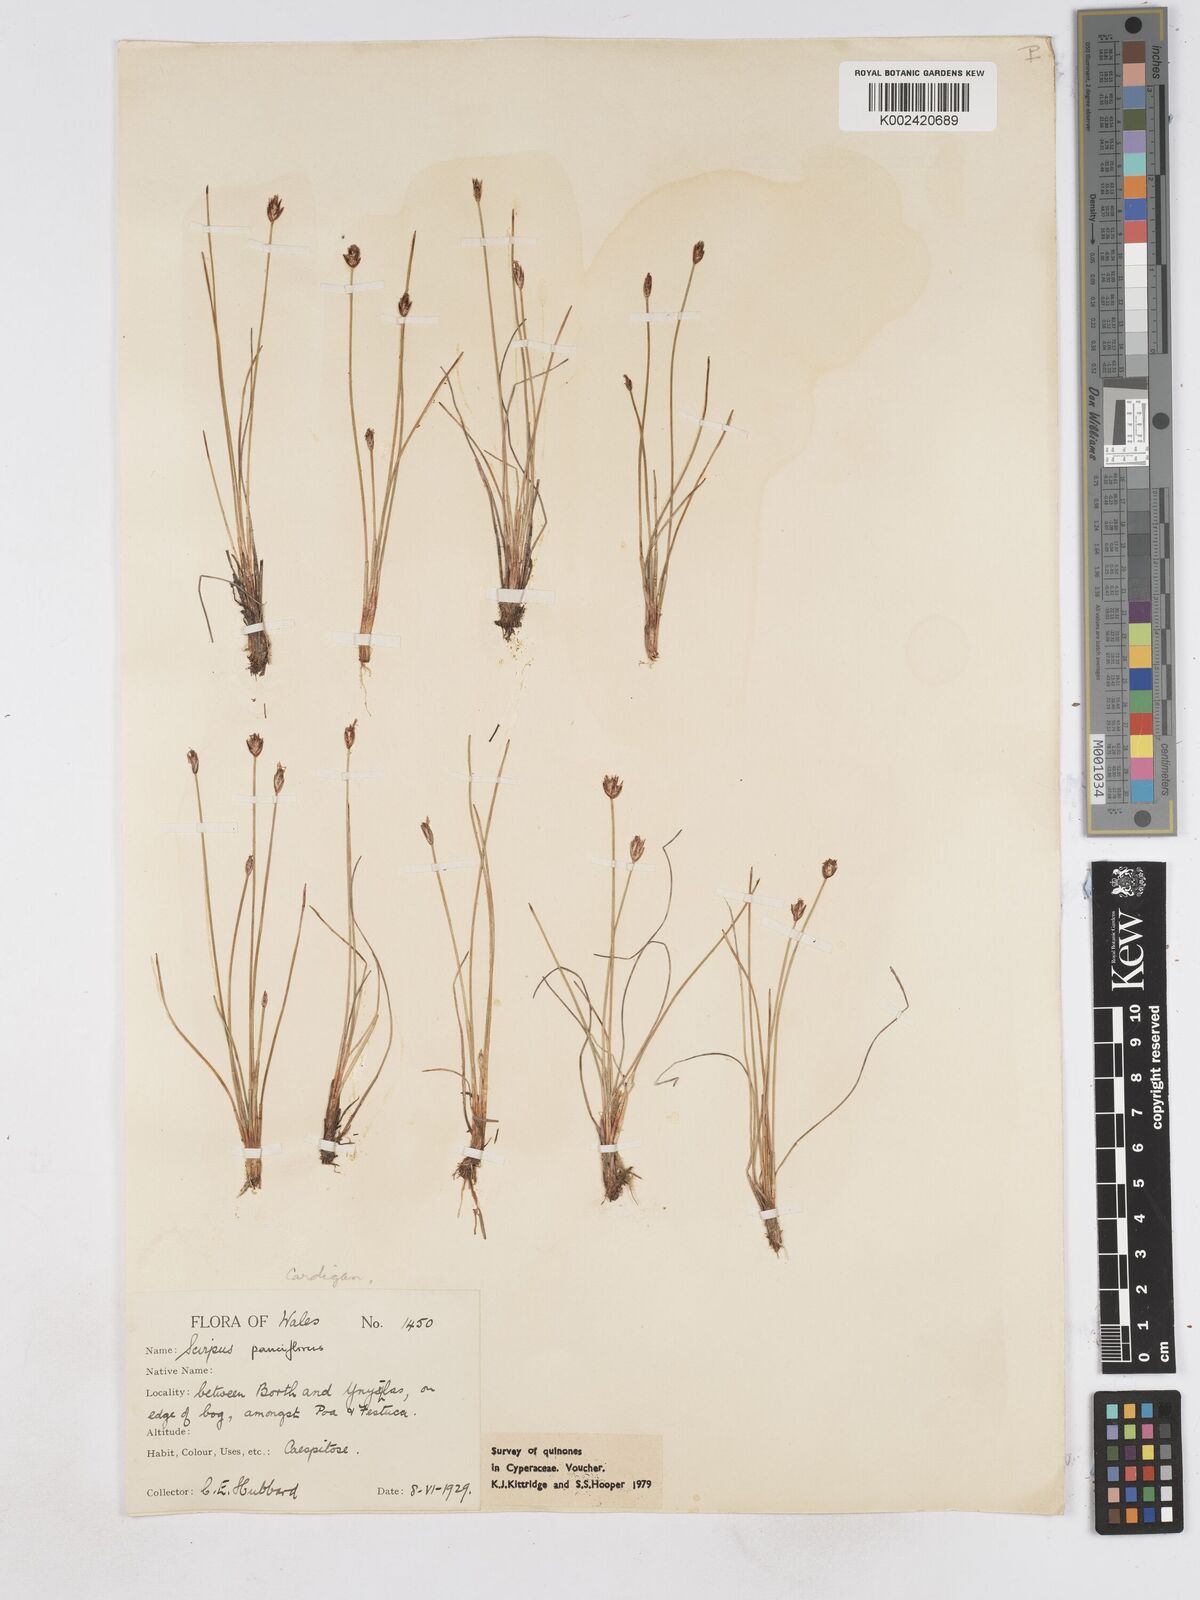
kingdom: Plantae
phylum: Tracheophyta
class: Liliopsida
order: Poales
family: Cyperaceae
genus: Eleocharis
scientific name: Eleocharis quinqueflora
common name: Few-flowered spike-rush
